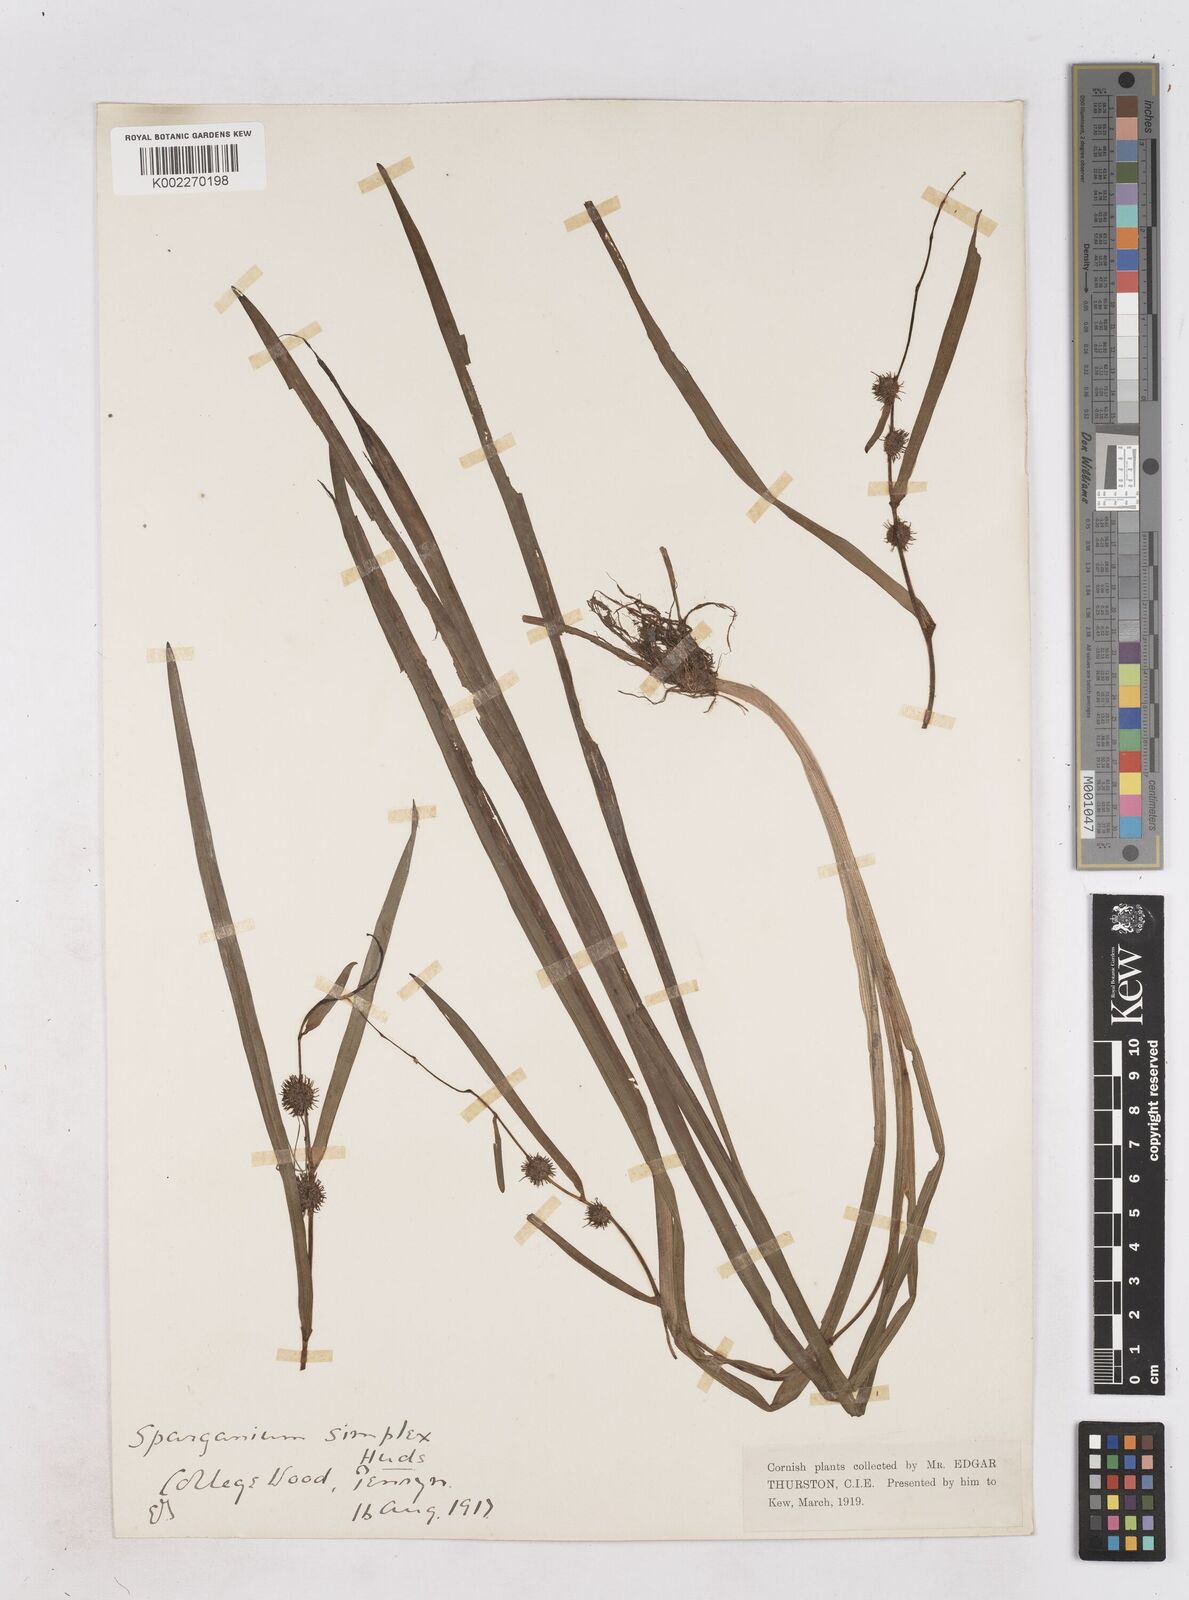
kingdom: Plantae
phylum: Tracheophyta
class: Liliopsida
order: Poales
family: Typhaceae
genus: Sparganium
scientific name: Sparganium emersum
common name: Unbranched bur-reed
